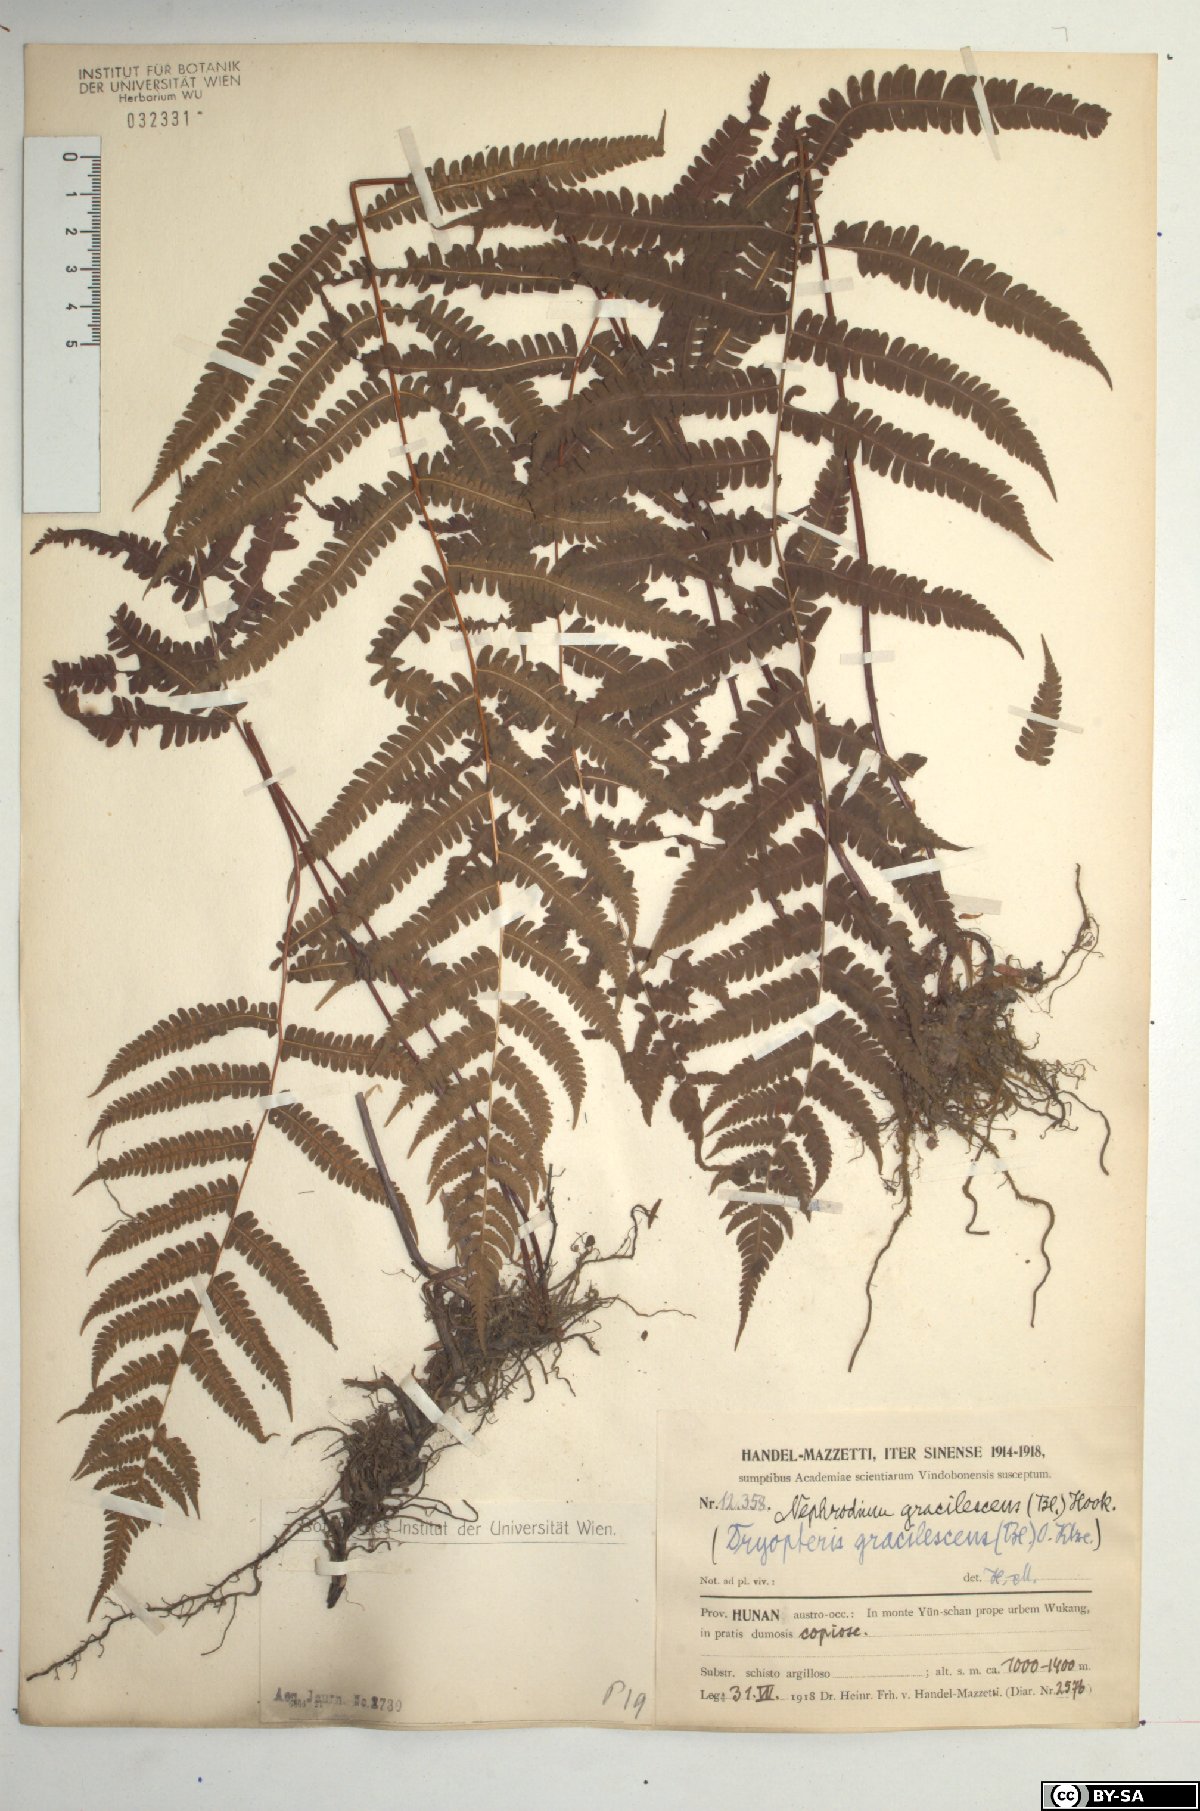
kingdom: Plantae
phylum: Tracheophyta
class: Polypodiopsida
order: Polypodiales
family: Thelypteridaceae
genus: Metathelypteris
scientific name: Metathelypteris gracilescens
